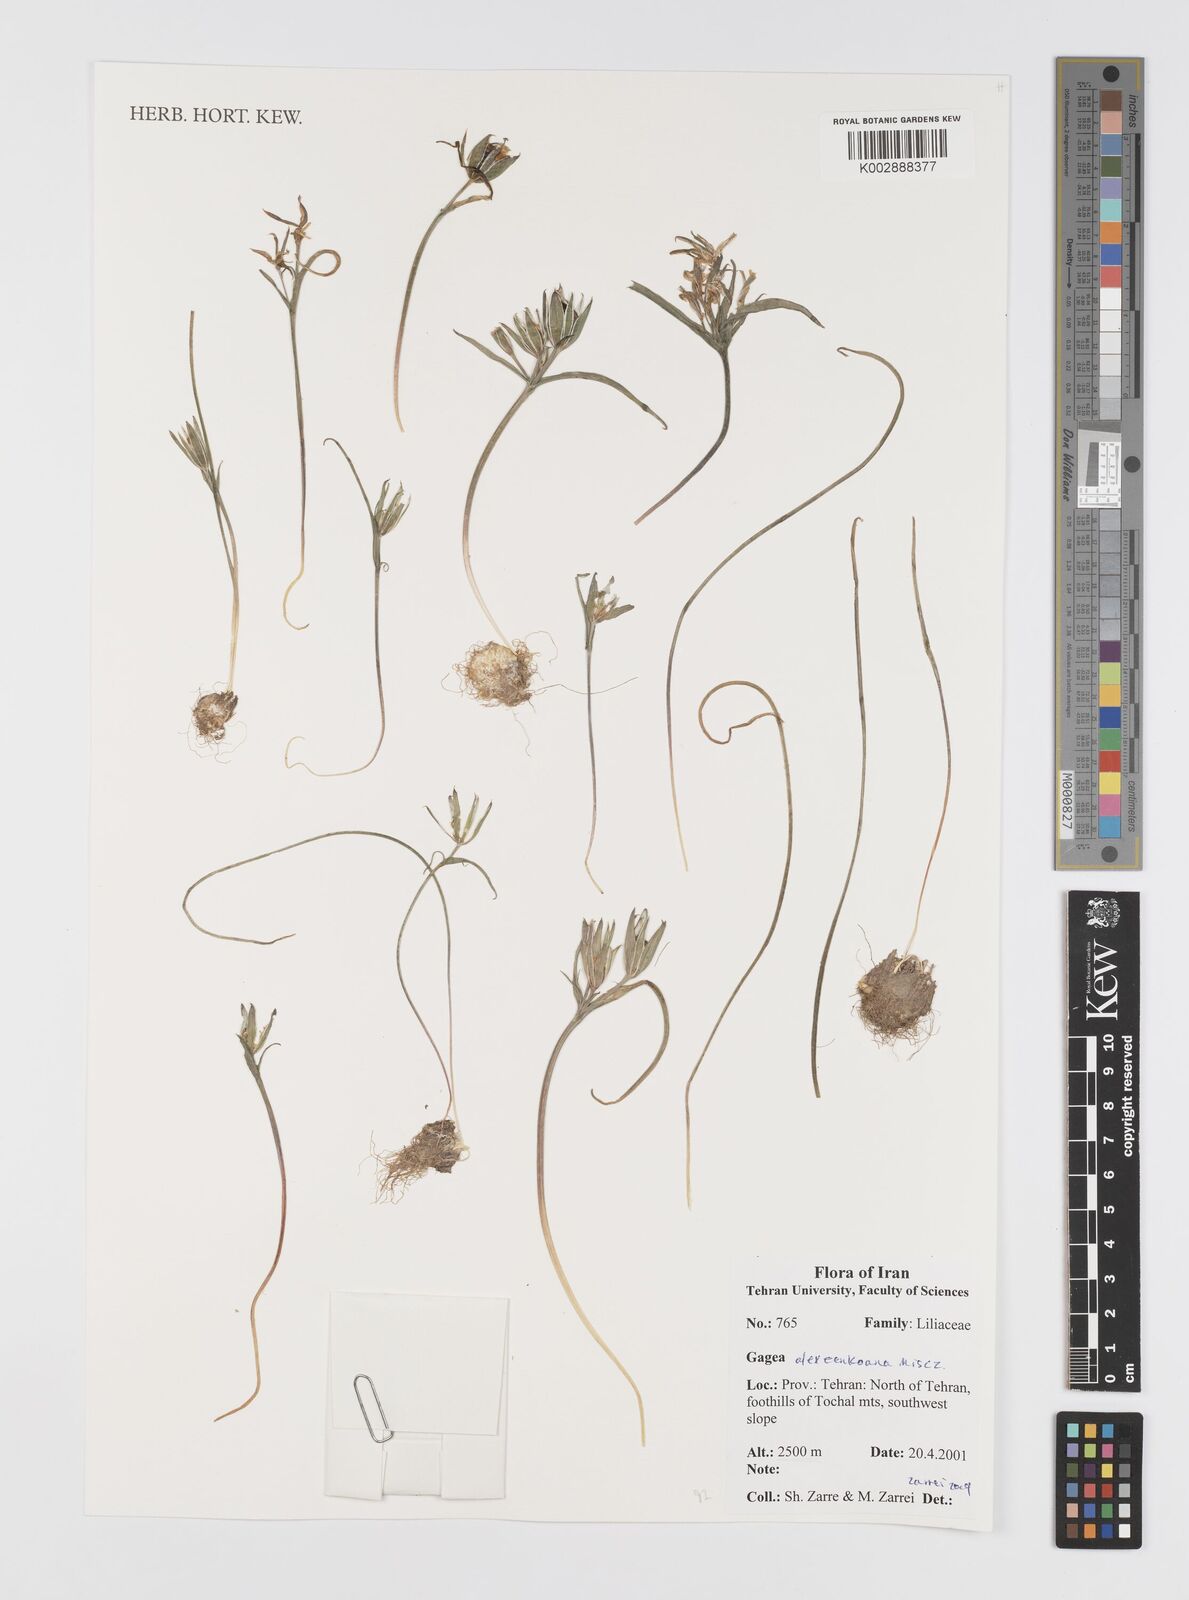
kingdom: Plantae
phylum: Tracheophyta
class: Liliopsida
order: Liliales
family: Liliaceae
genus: Gagea
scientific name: Gagea alexeenkoana
